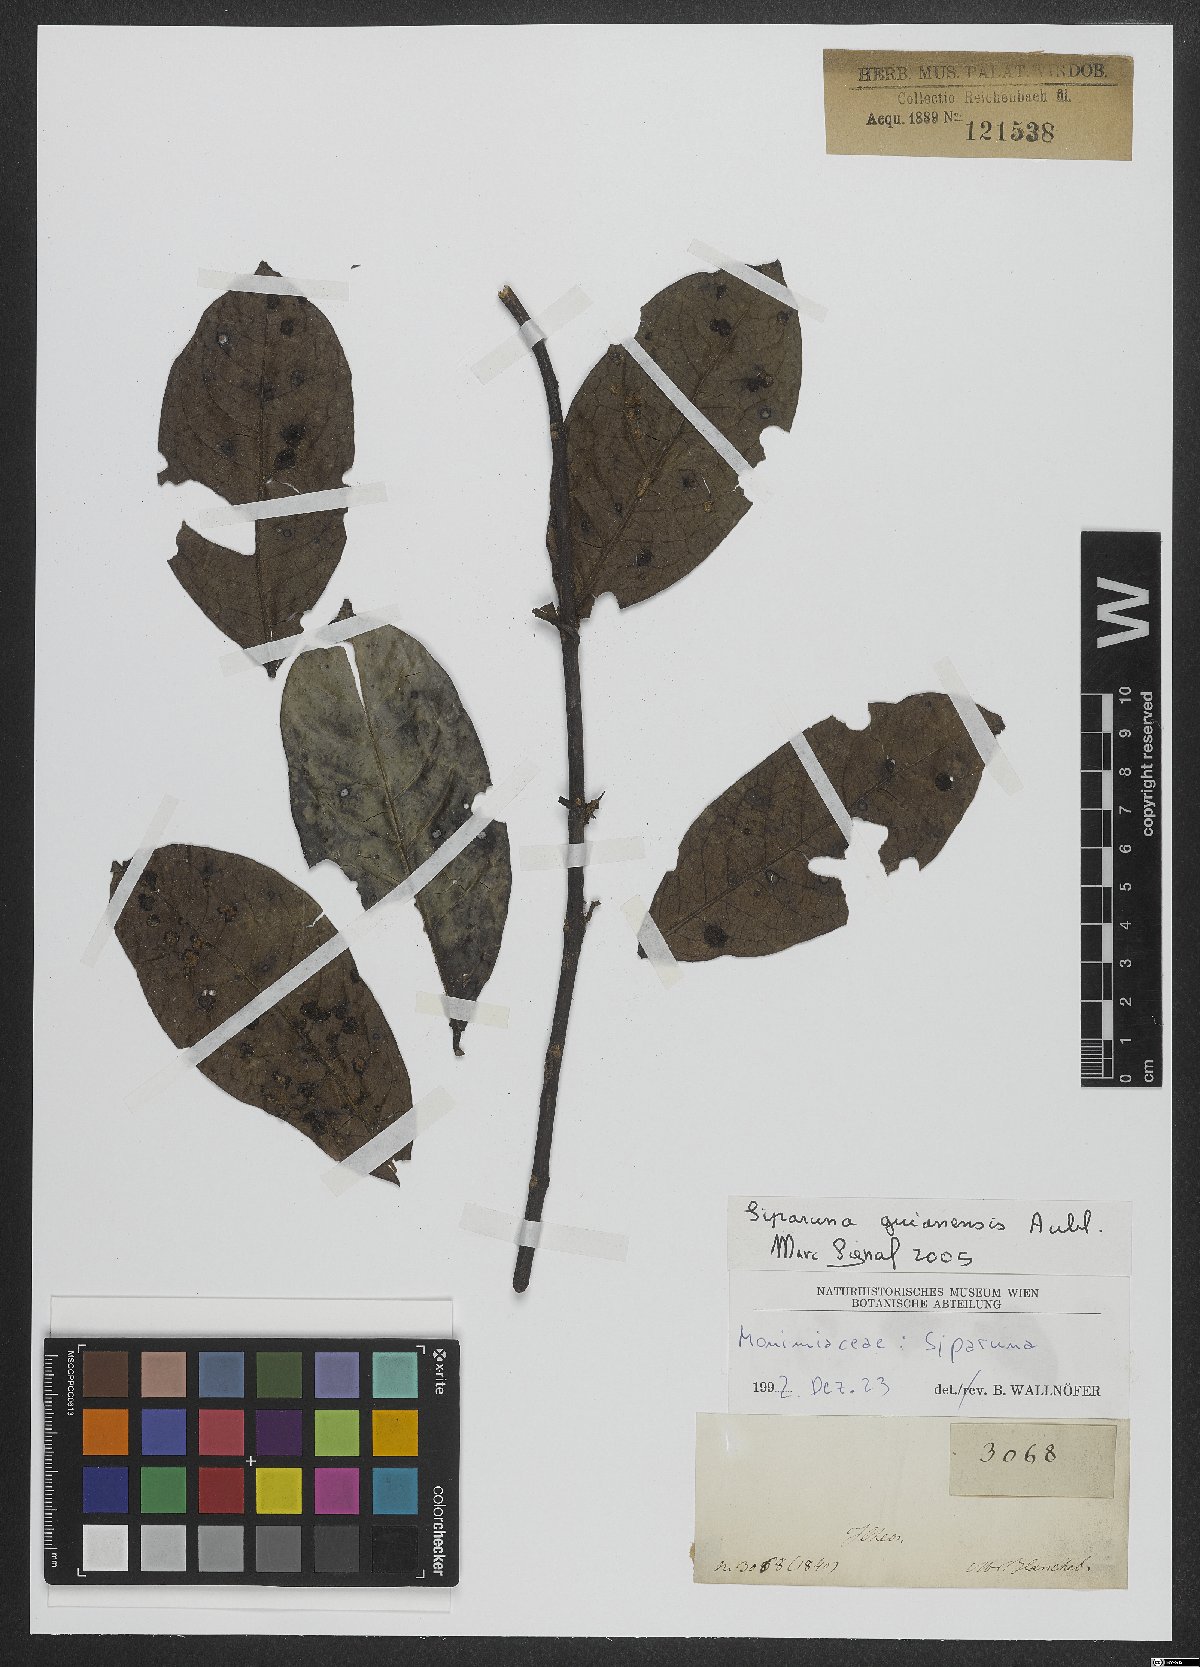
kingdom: Plantae
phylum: Tracheophyta
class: Magnoliopsida
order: Laurales
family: Siparunaceae
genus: Siparuna
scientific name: Siparuna guianensis
